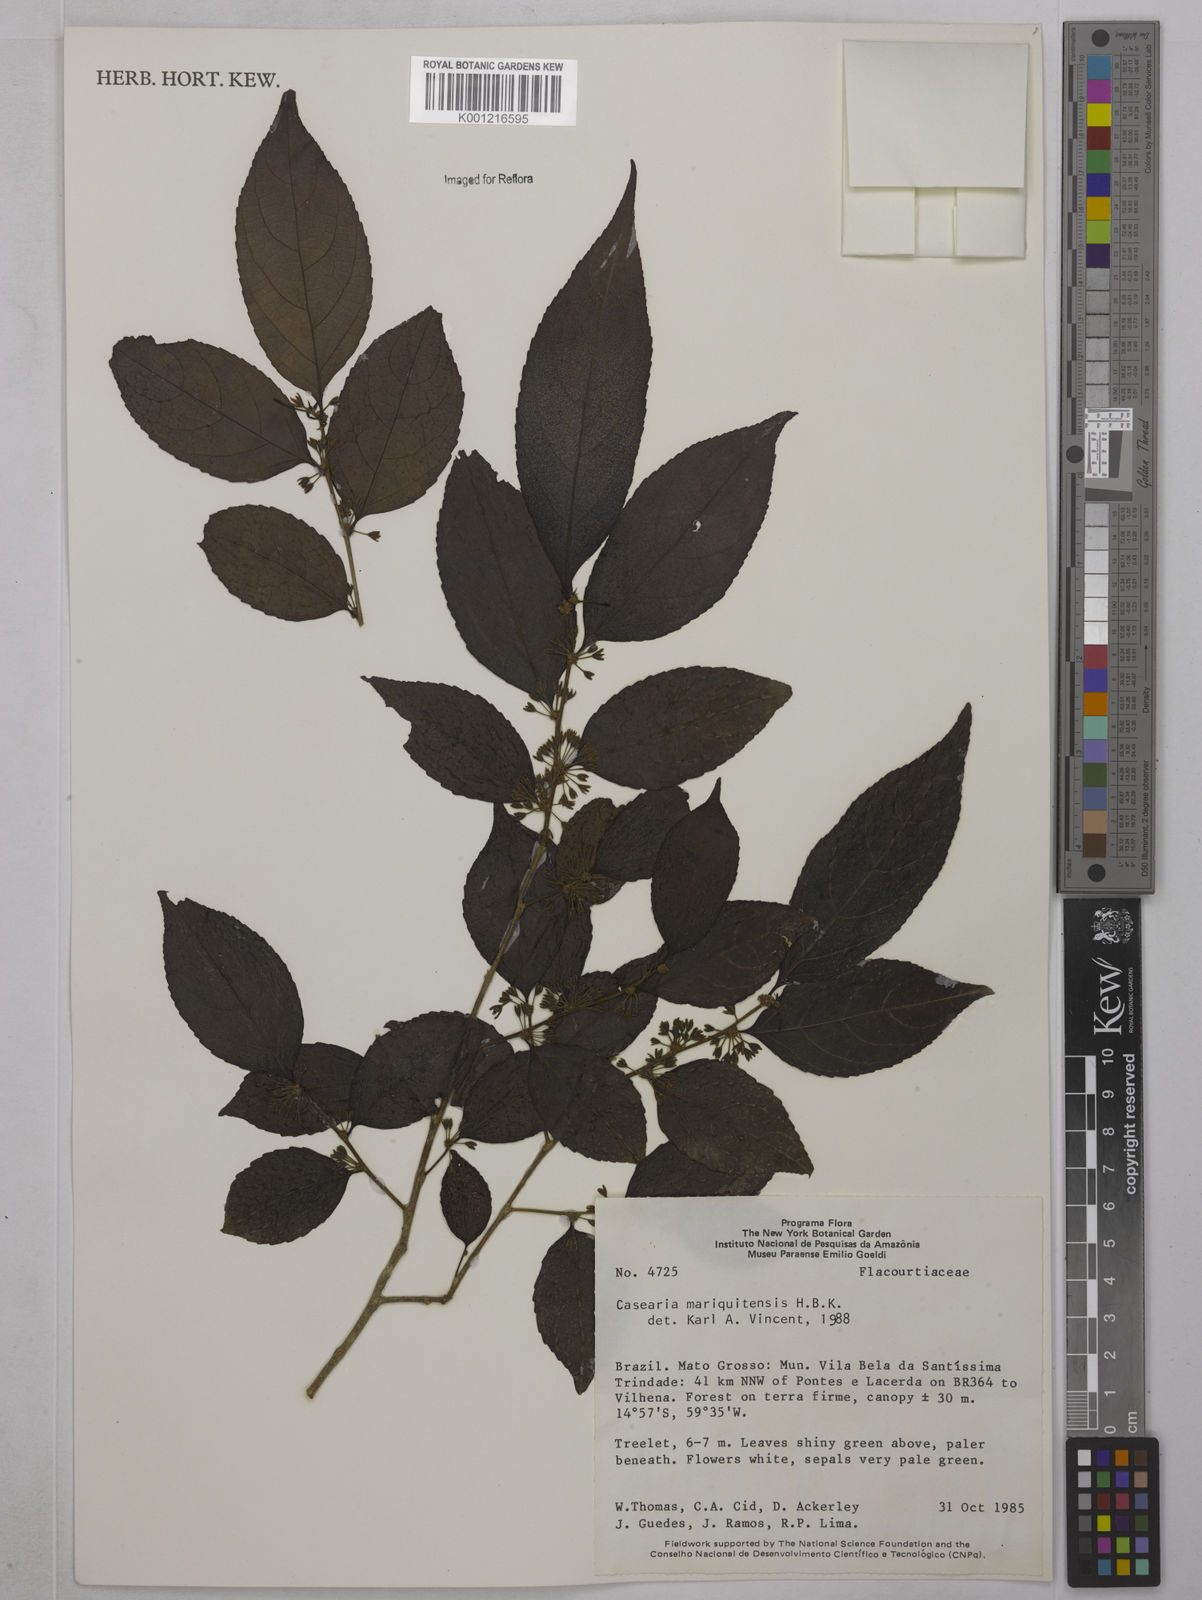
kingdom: Plantae
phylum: Tracheophyta
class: Magnoliopsida
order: Malpighiales
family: Salicaceae
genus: Casearia
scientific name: Casearia mariquitensis
